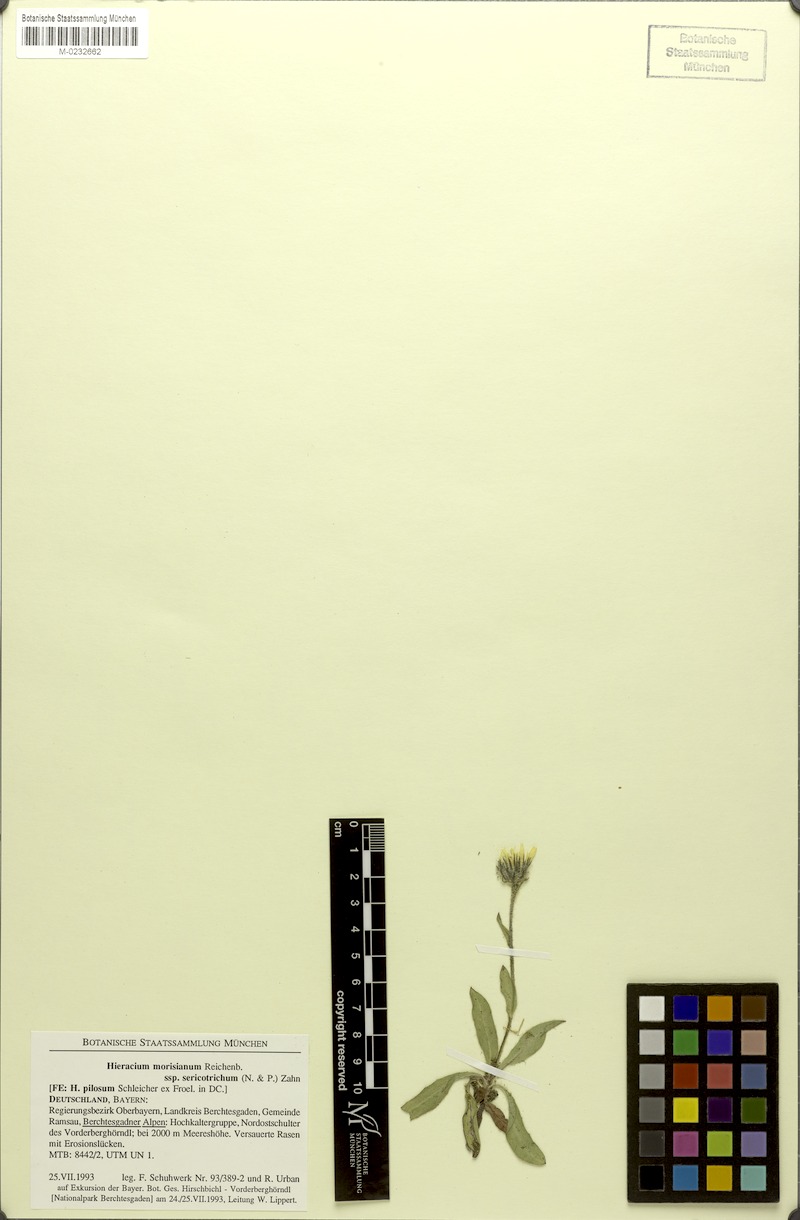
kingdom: Plantae
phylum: Tracheophyta
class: Magnoliopsida
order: Asterales
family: Asteraceae
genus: Hieracium
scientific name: Hieracium pilosum
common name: Fimbriate-pitted hawkweed
